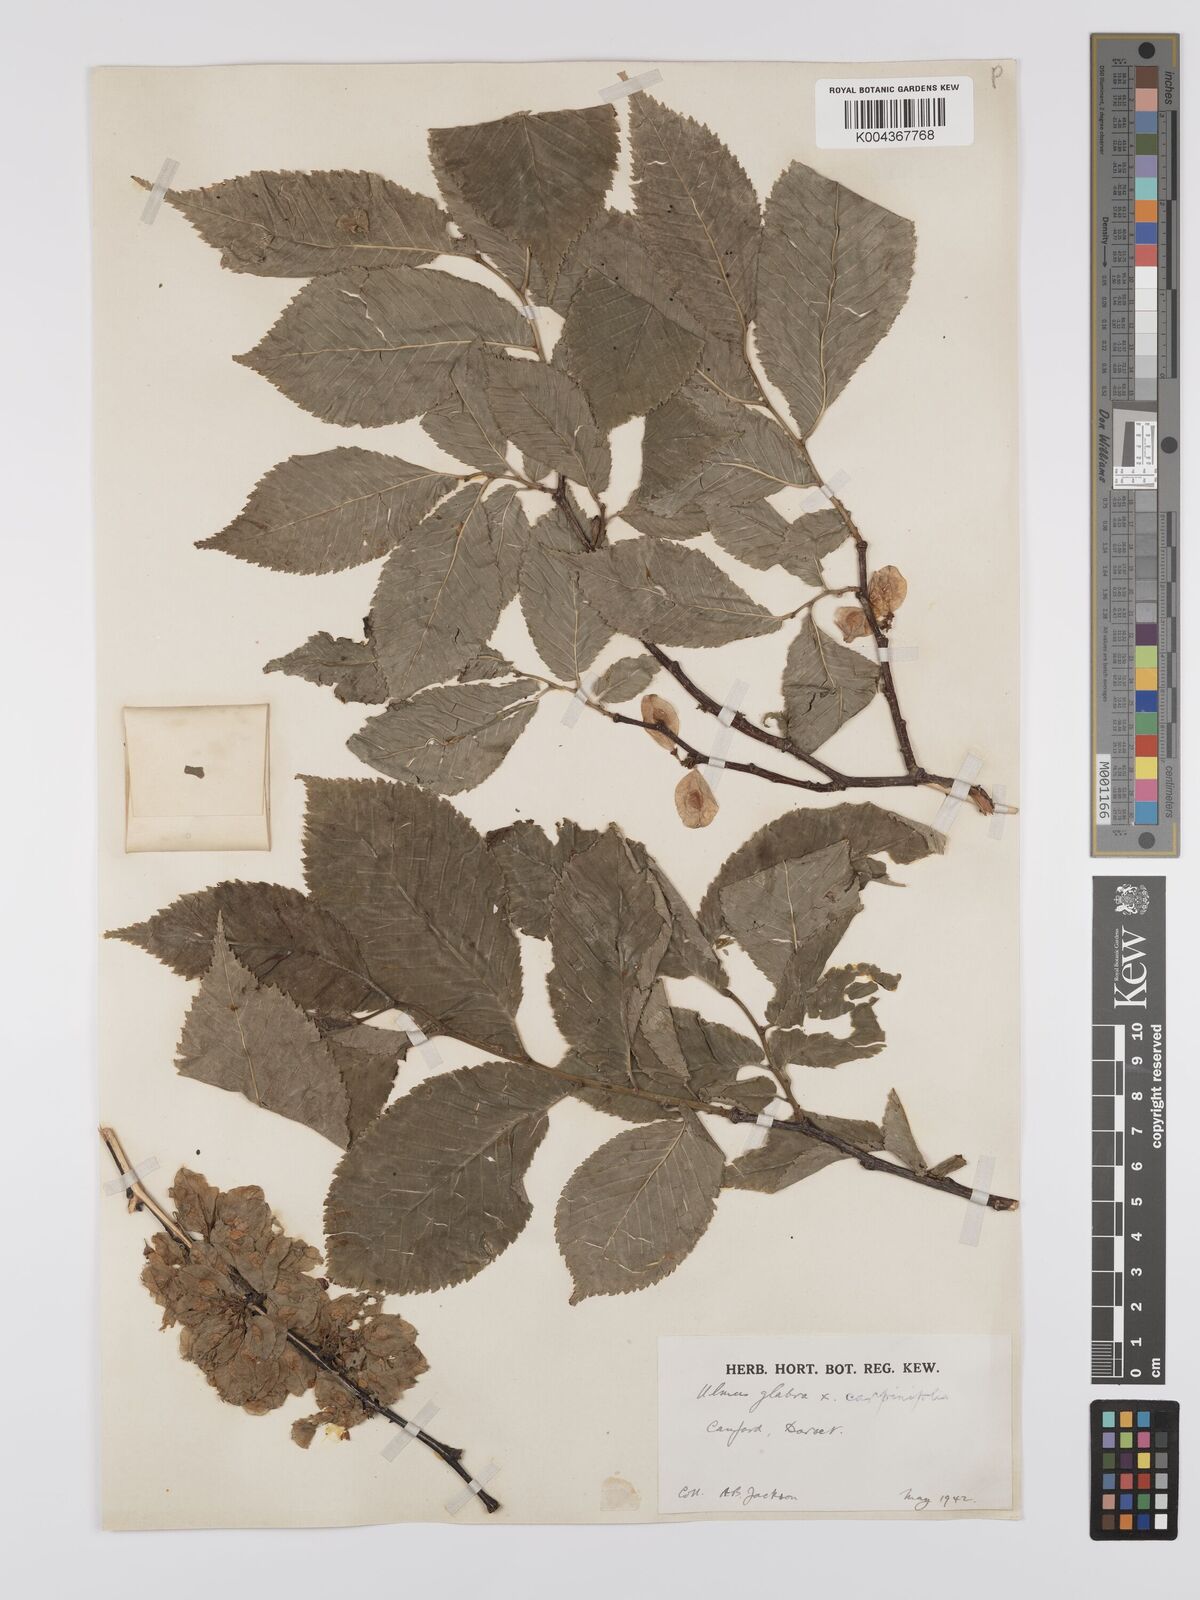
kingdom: Plantae
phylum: Tracheophyta
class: Magnoliopsida
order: Rosales
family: Ulmaceae
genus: Ulmus
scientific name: Ulmus
